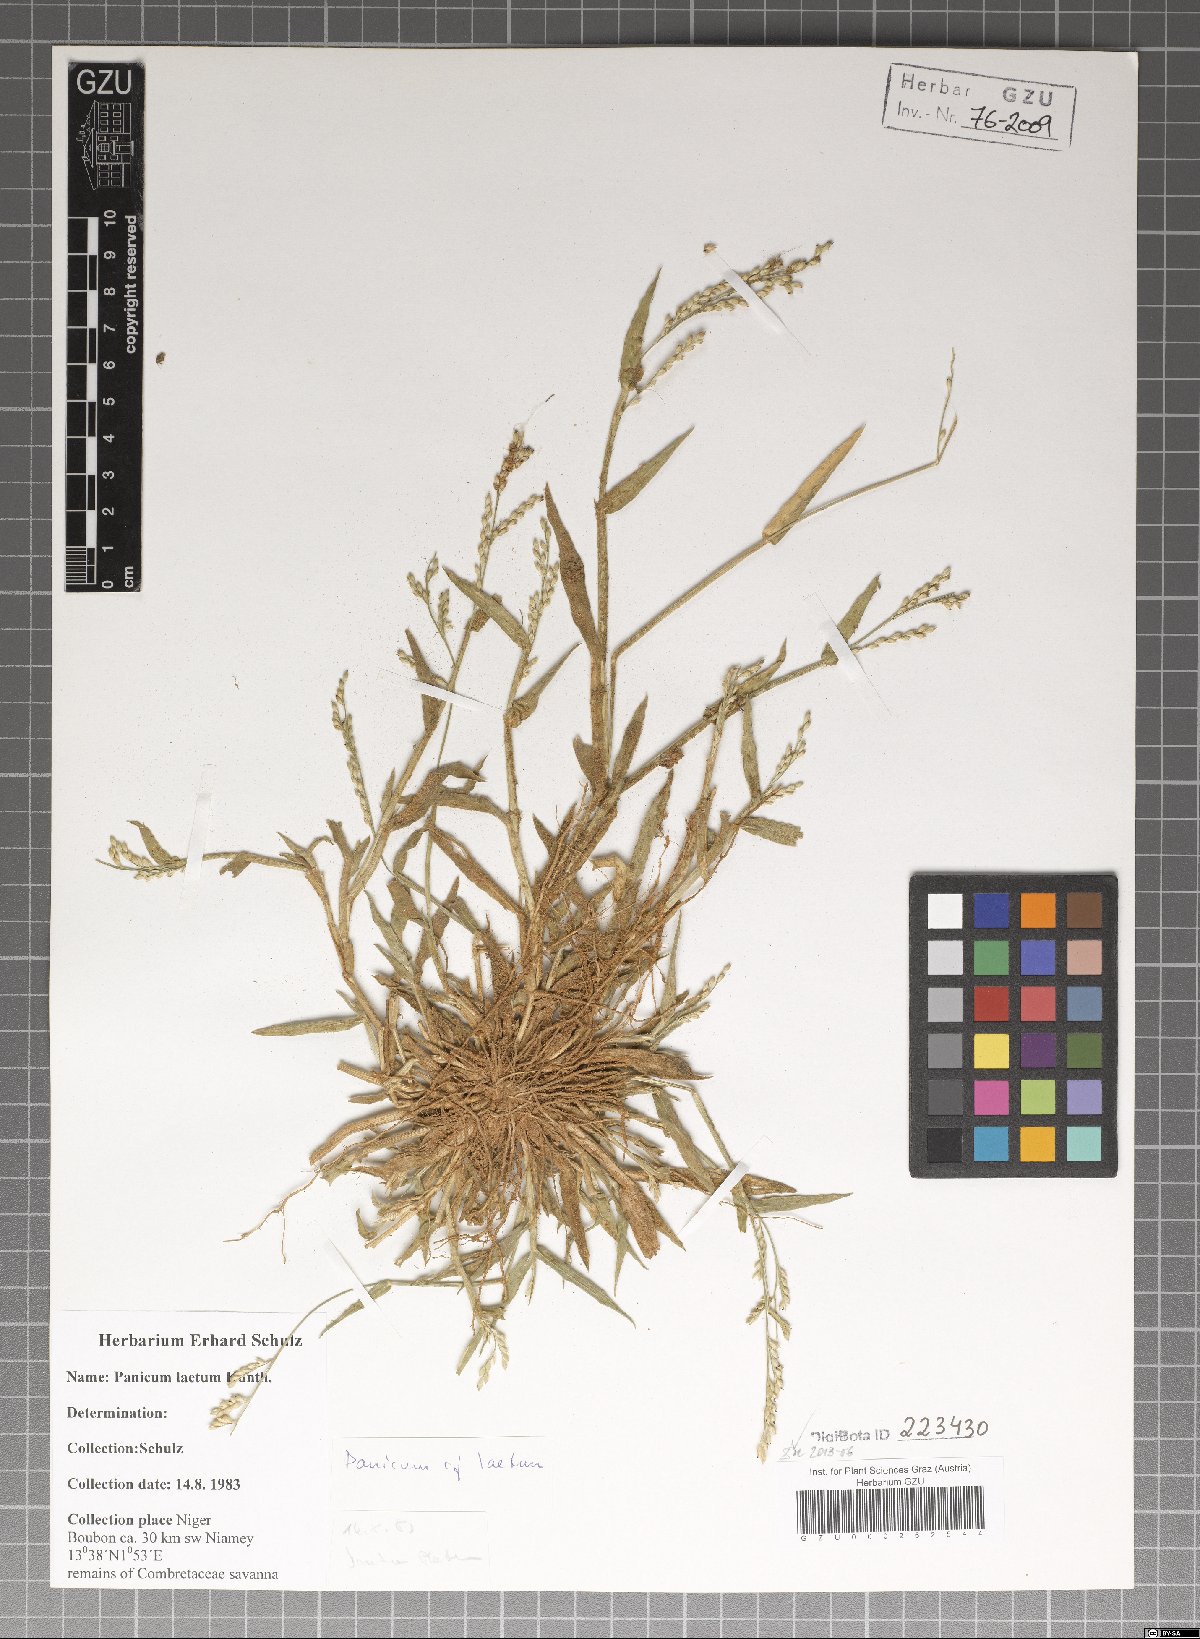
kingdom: Plantae
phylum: Tracheophyta
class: Liliopsida
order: Poales
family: Poaceae
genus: Panicum
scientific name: Panicum laetum
